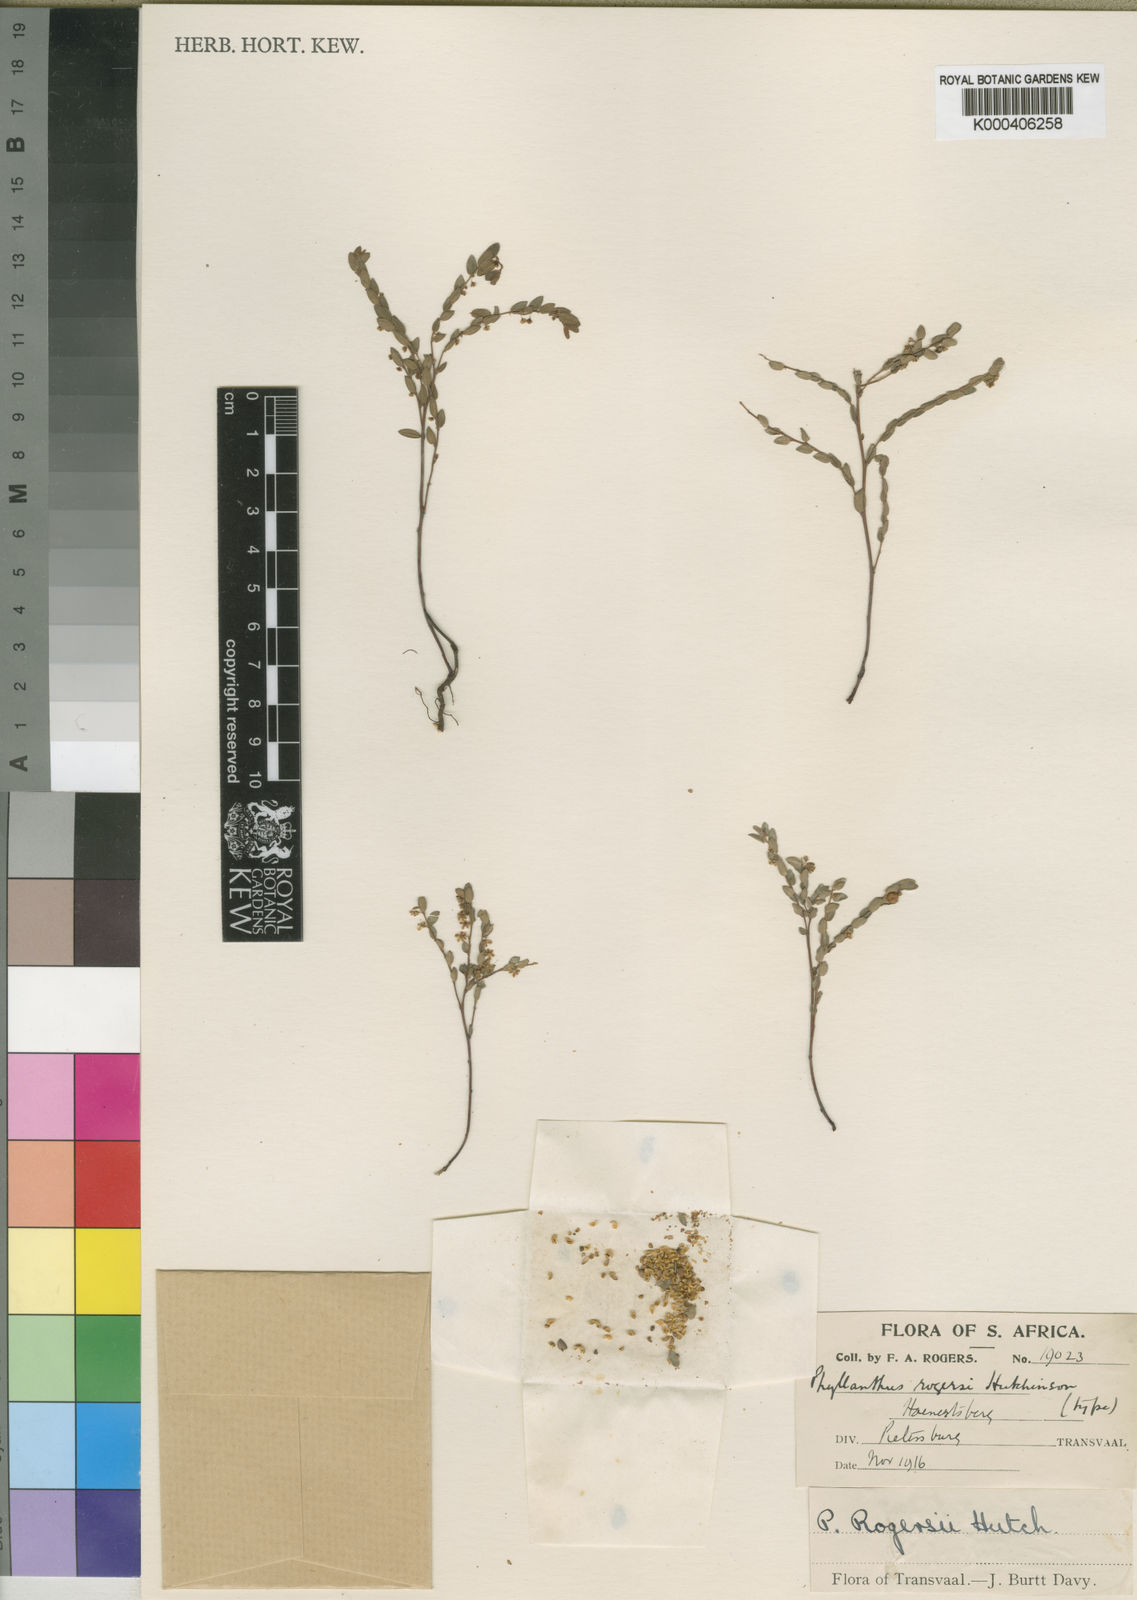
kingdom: Plantae
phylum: Tracheophyta
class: Magnoliopsida
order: Malpighiales
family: Phyllanthaceae
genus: Phyllanthus
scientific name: Phyllanthus graminicola
